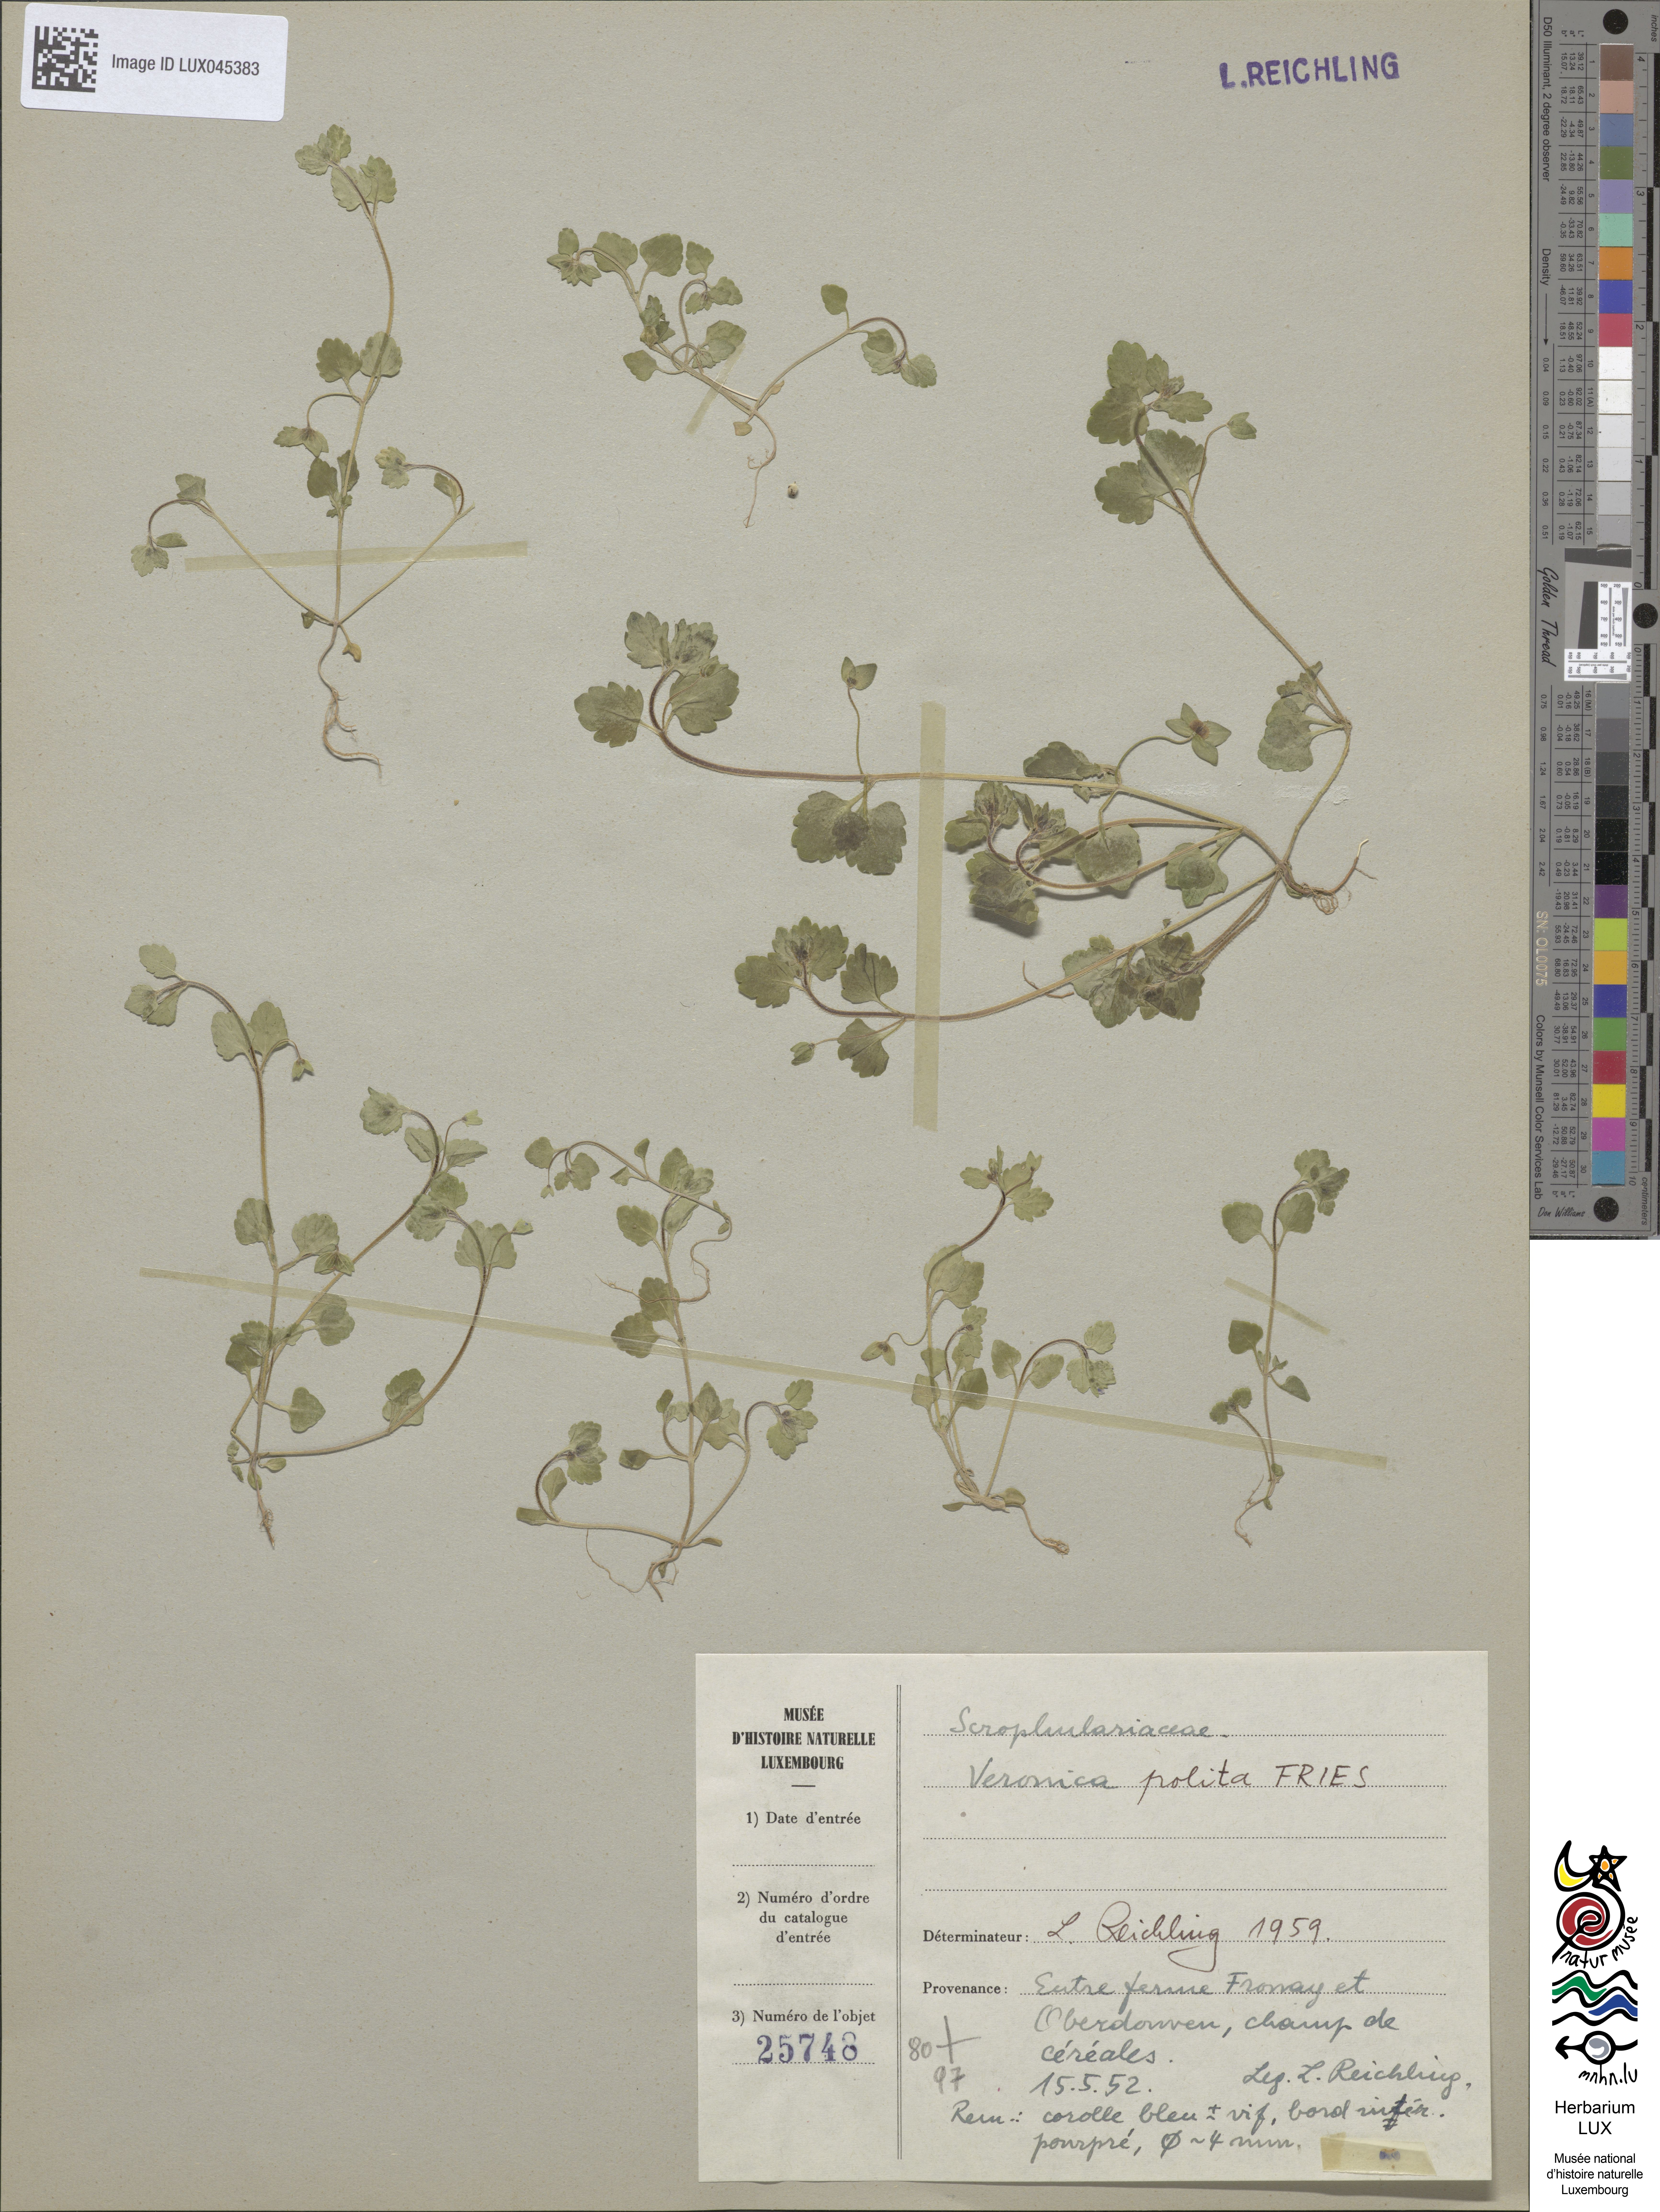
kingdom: Plantae
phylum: Tracheophyta
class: Magnoliopsida
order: Lamiales
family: Plantaginaceae
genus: Veronica
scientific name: Veronica polita
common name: Grey field-speedwell
